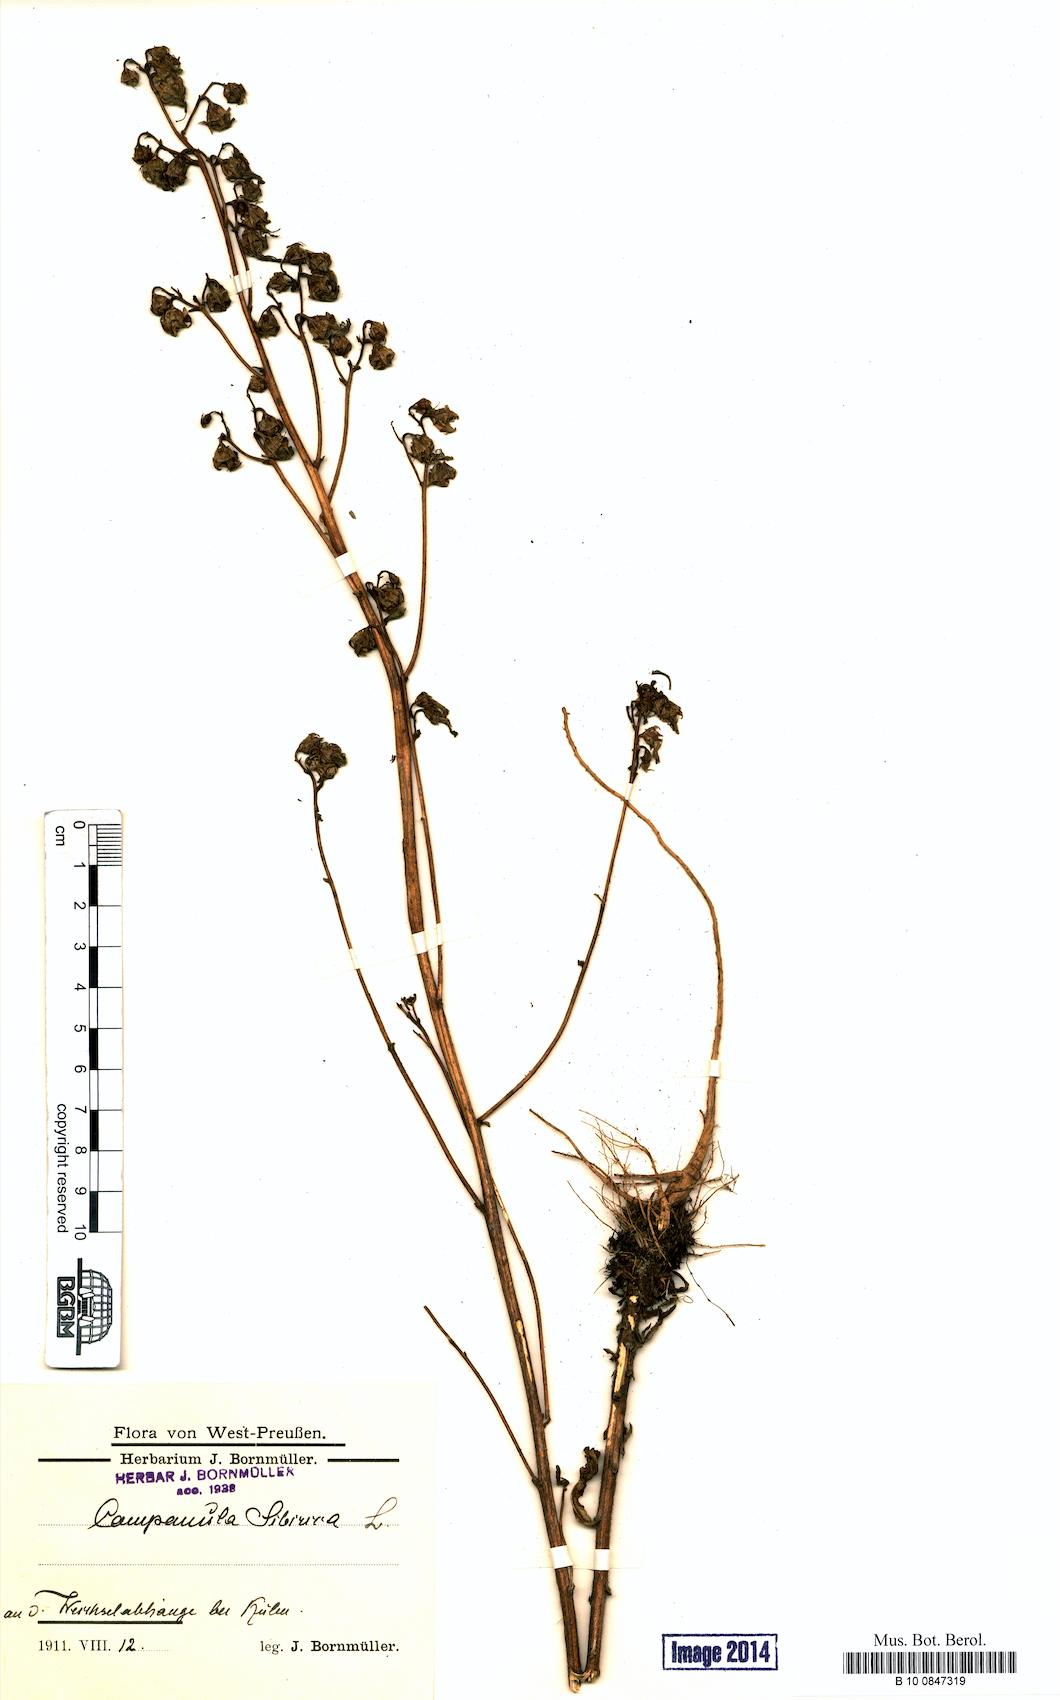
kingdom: Plantae
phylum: Tracheophyta
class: Magnoliopsida
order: Asterales
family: Campanulaceae
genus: Campanula
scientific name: Campanula sibirica
